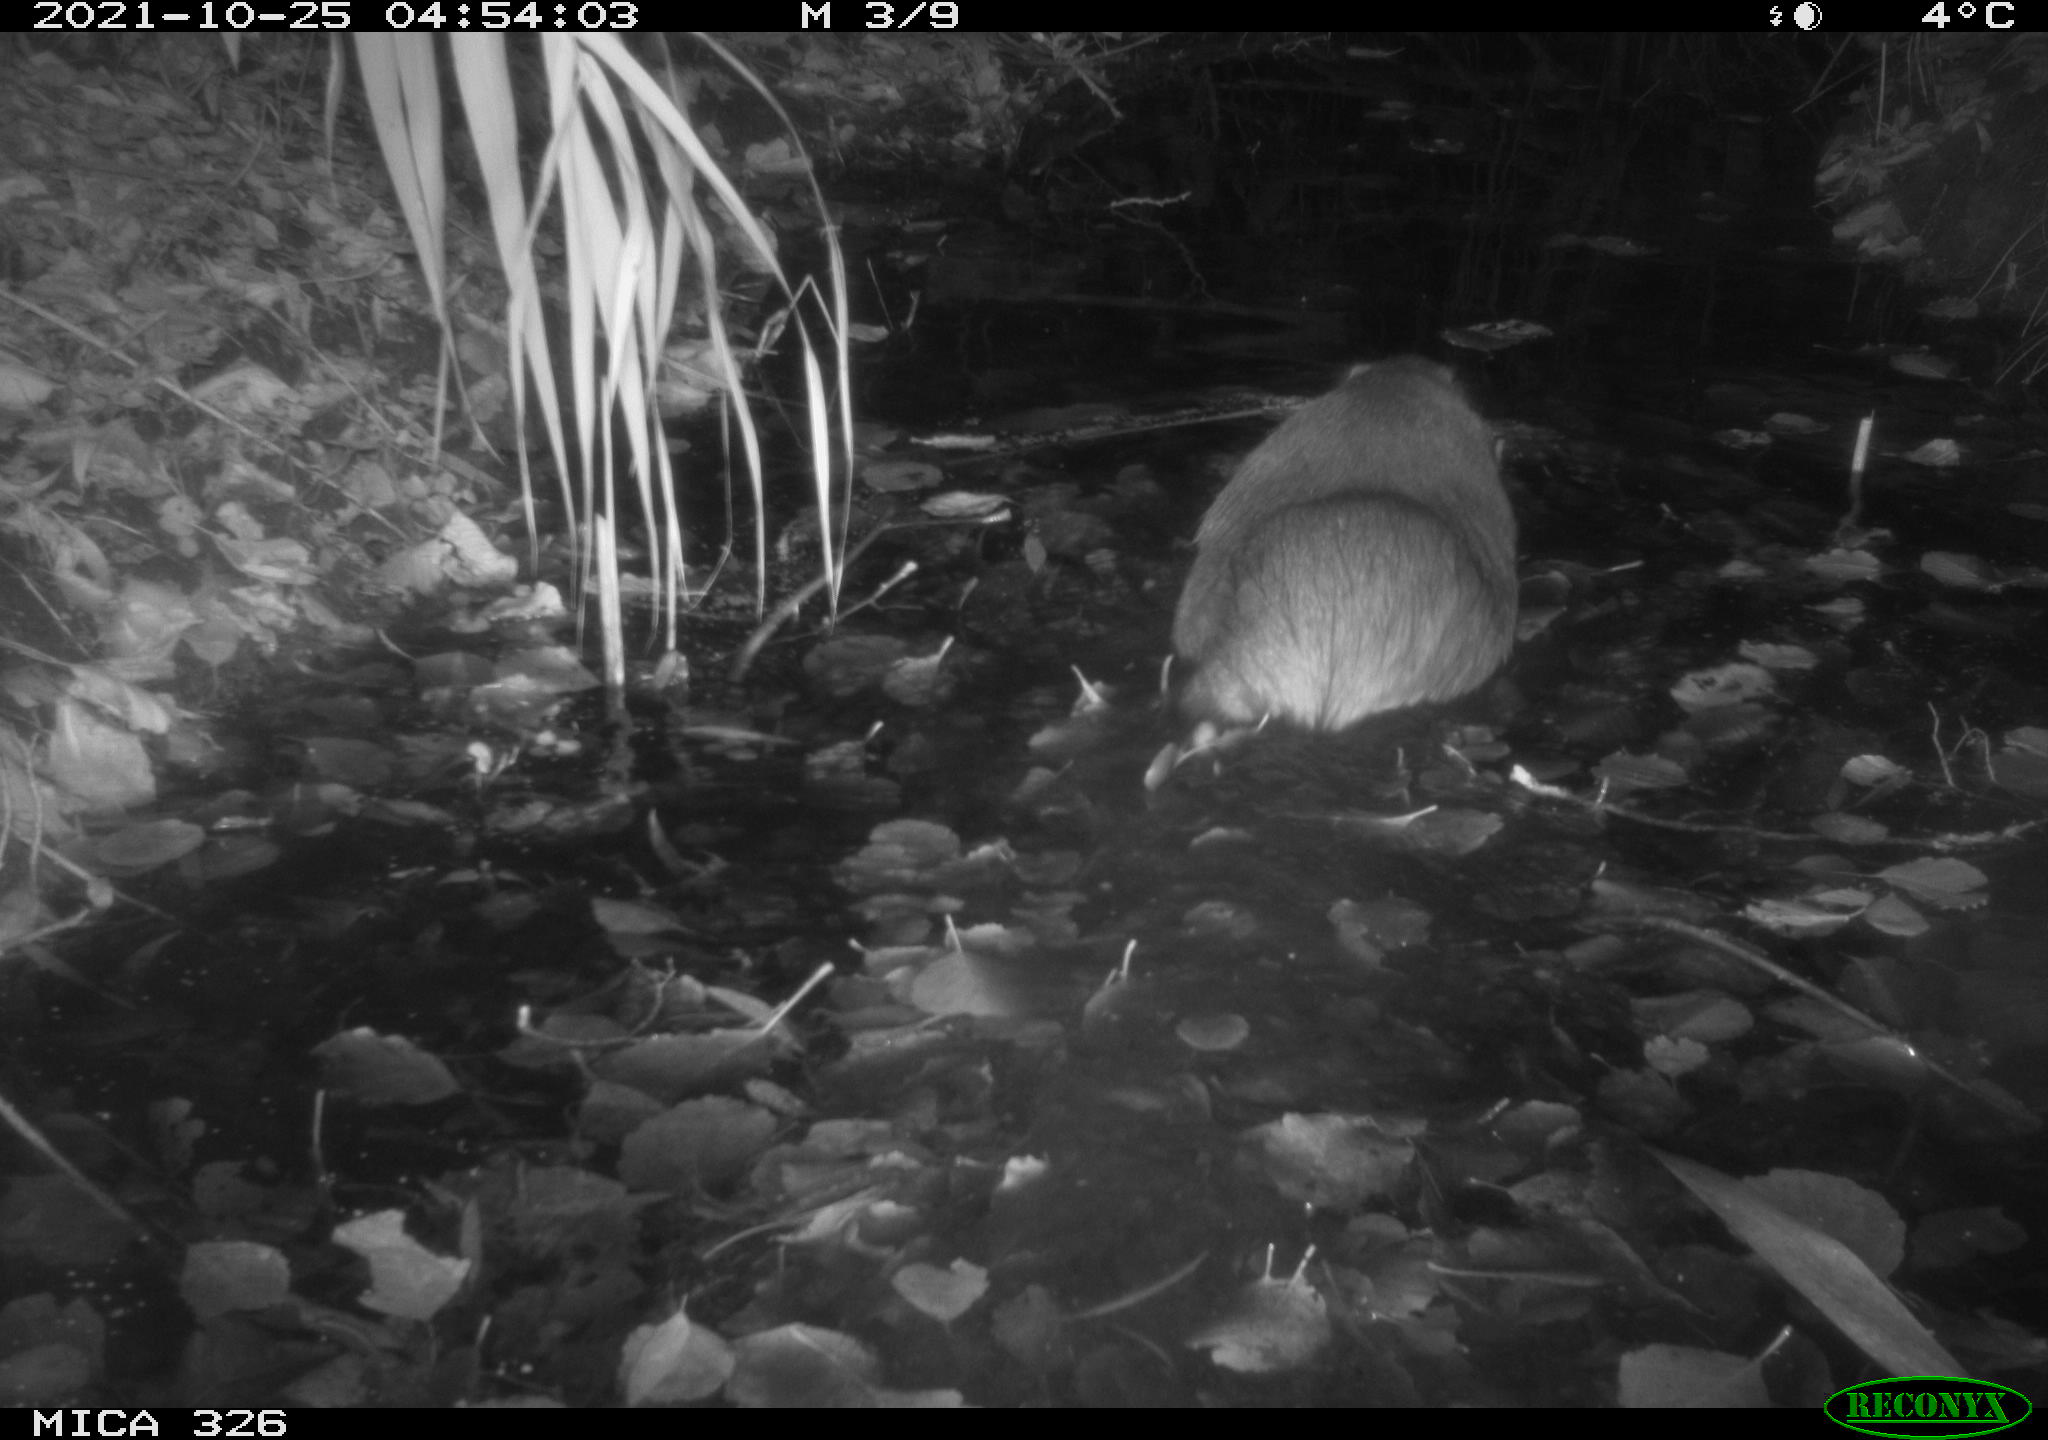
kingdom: Animalia
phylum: Chordata
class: Mammalia
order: Rodentia
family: Myocastoridae
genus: Myocastor
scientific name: Myocastor coypus
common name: Coypu
